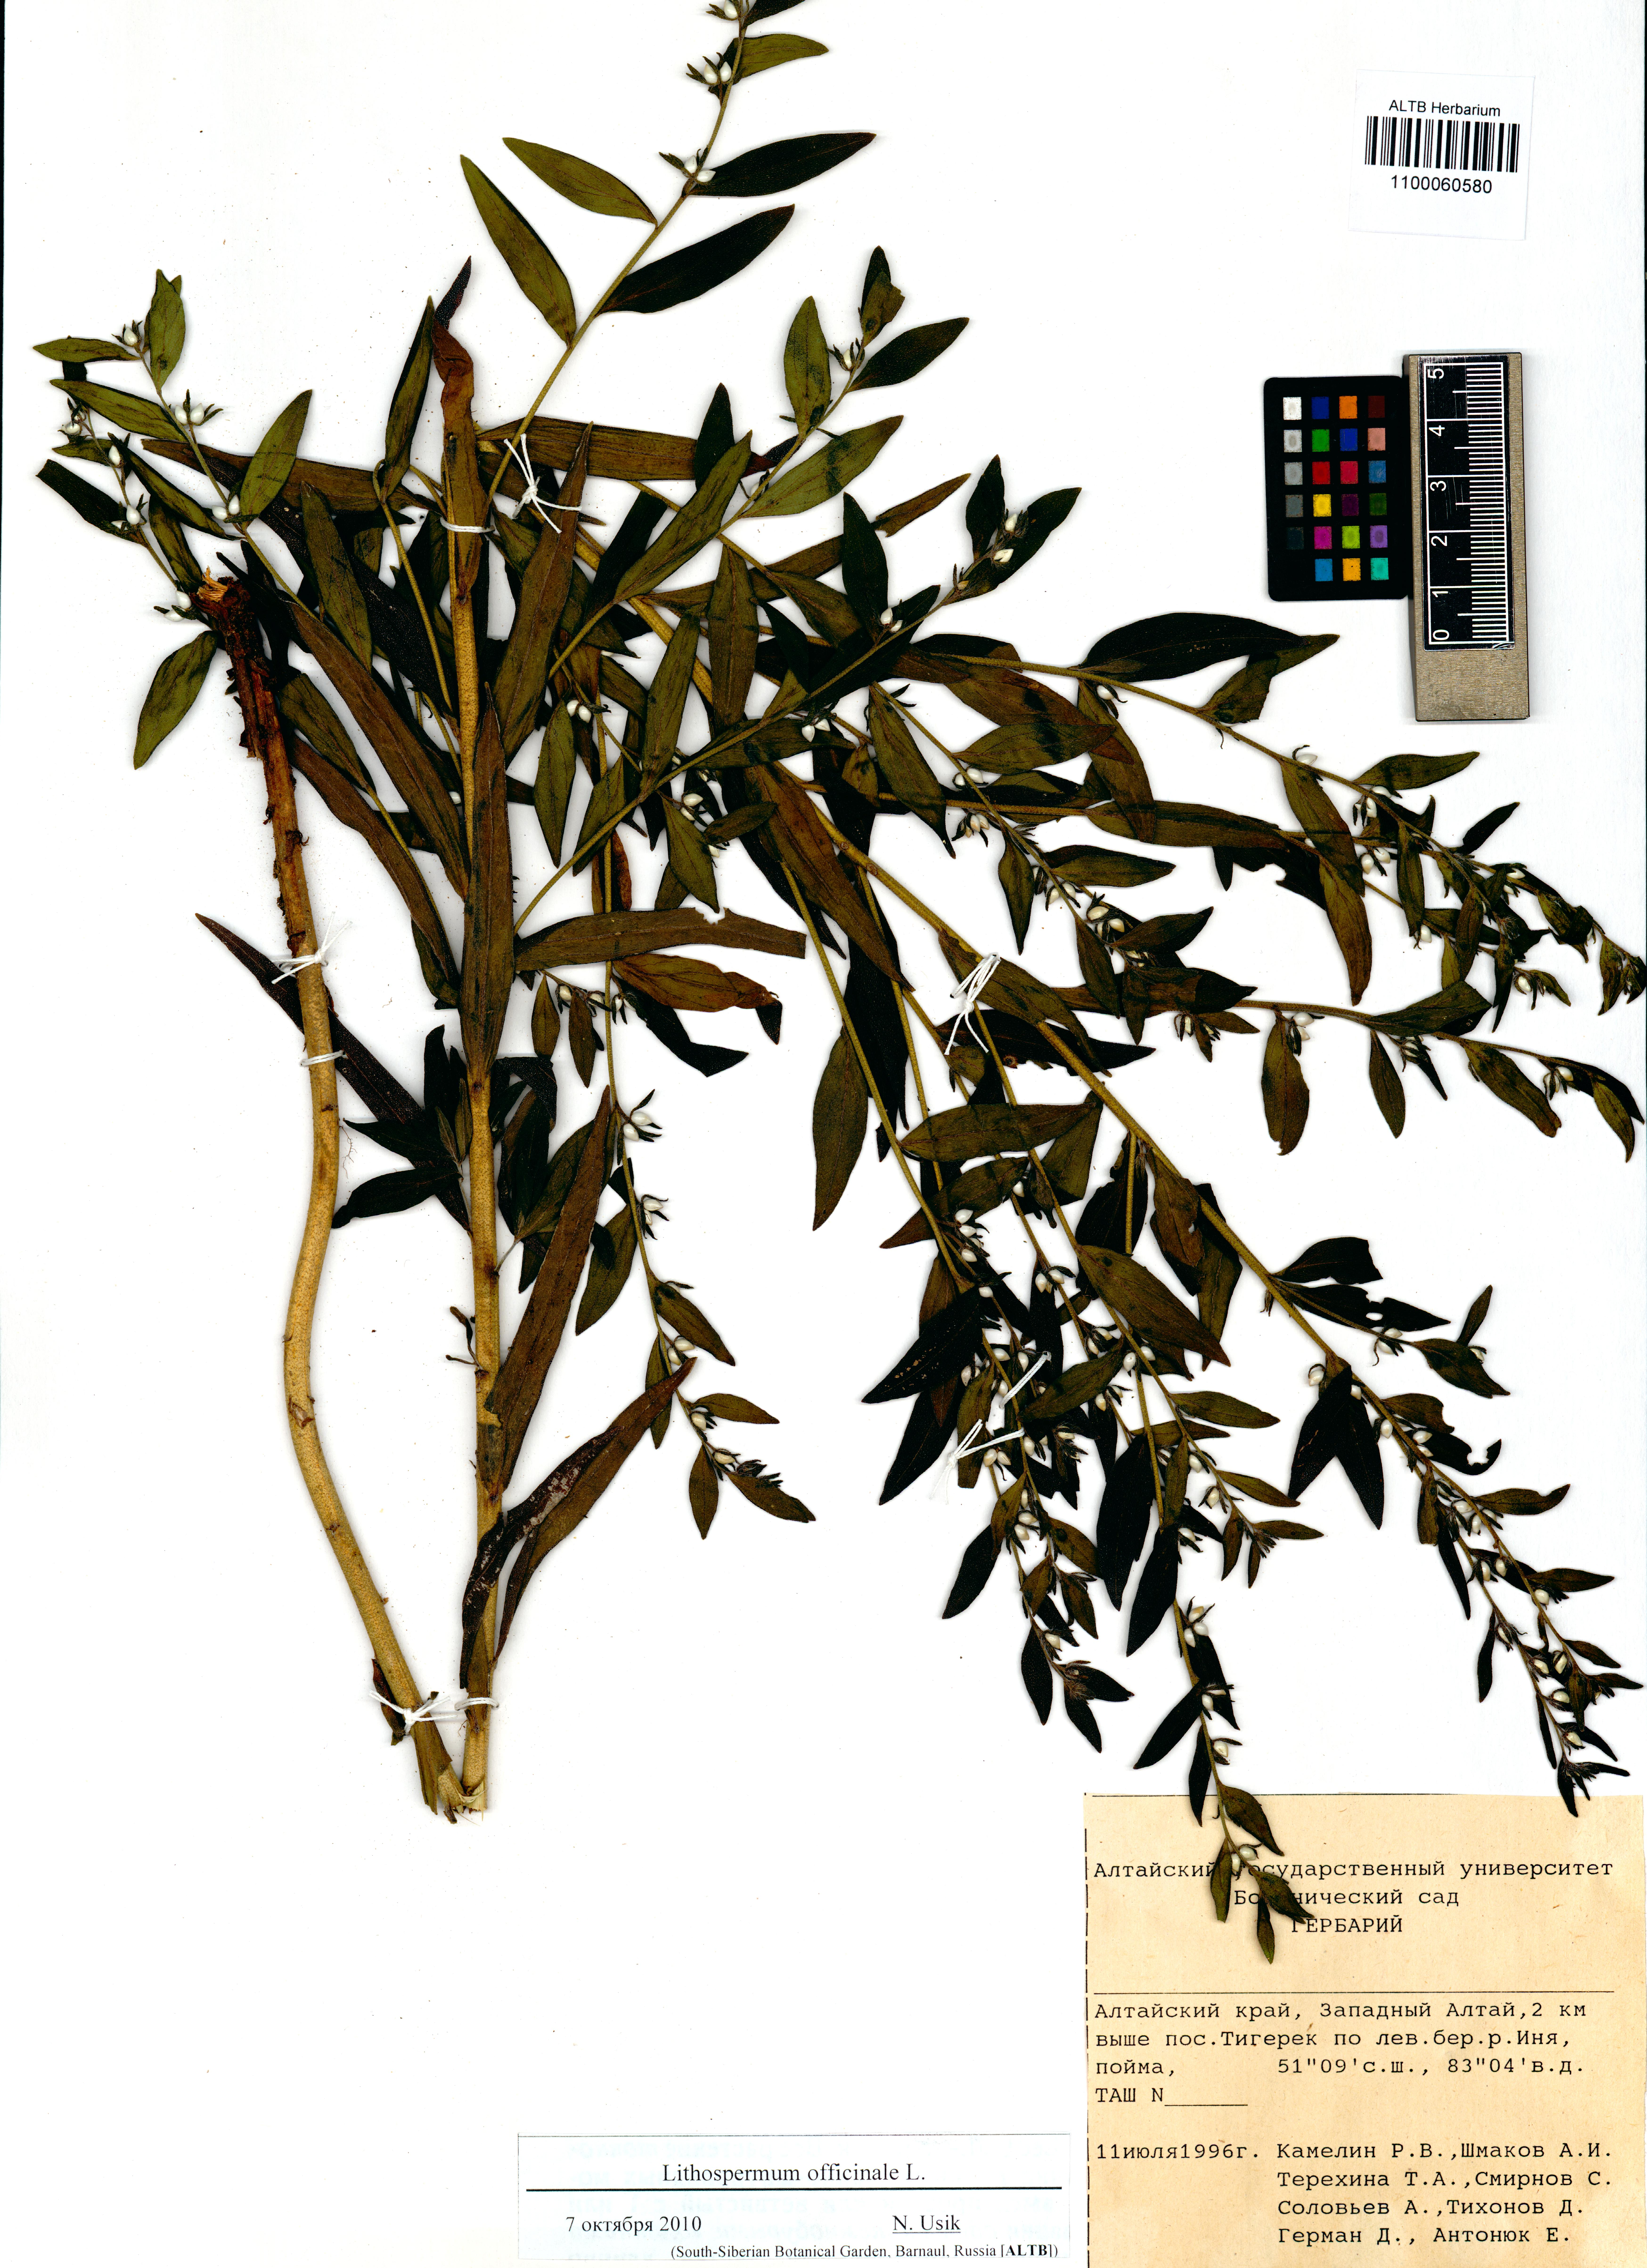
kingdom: Plantae
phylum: Tracheophyta
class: Magnoliopsida
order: Boraginales
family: Boraginaceae
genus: Lithospermum
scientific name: Lithospermum officinale
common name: Common gromwell
